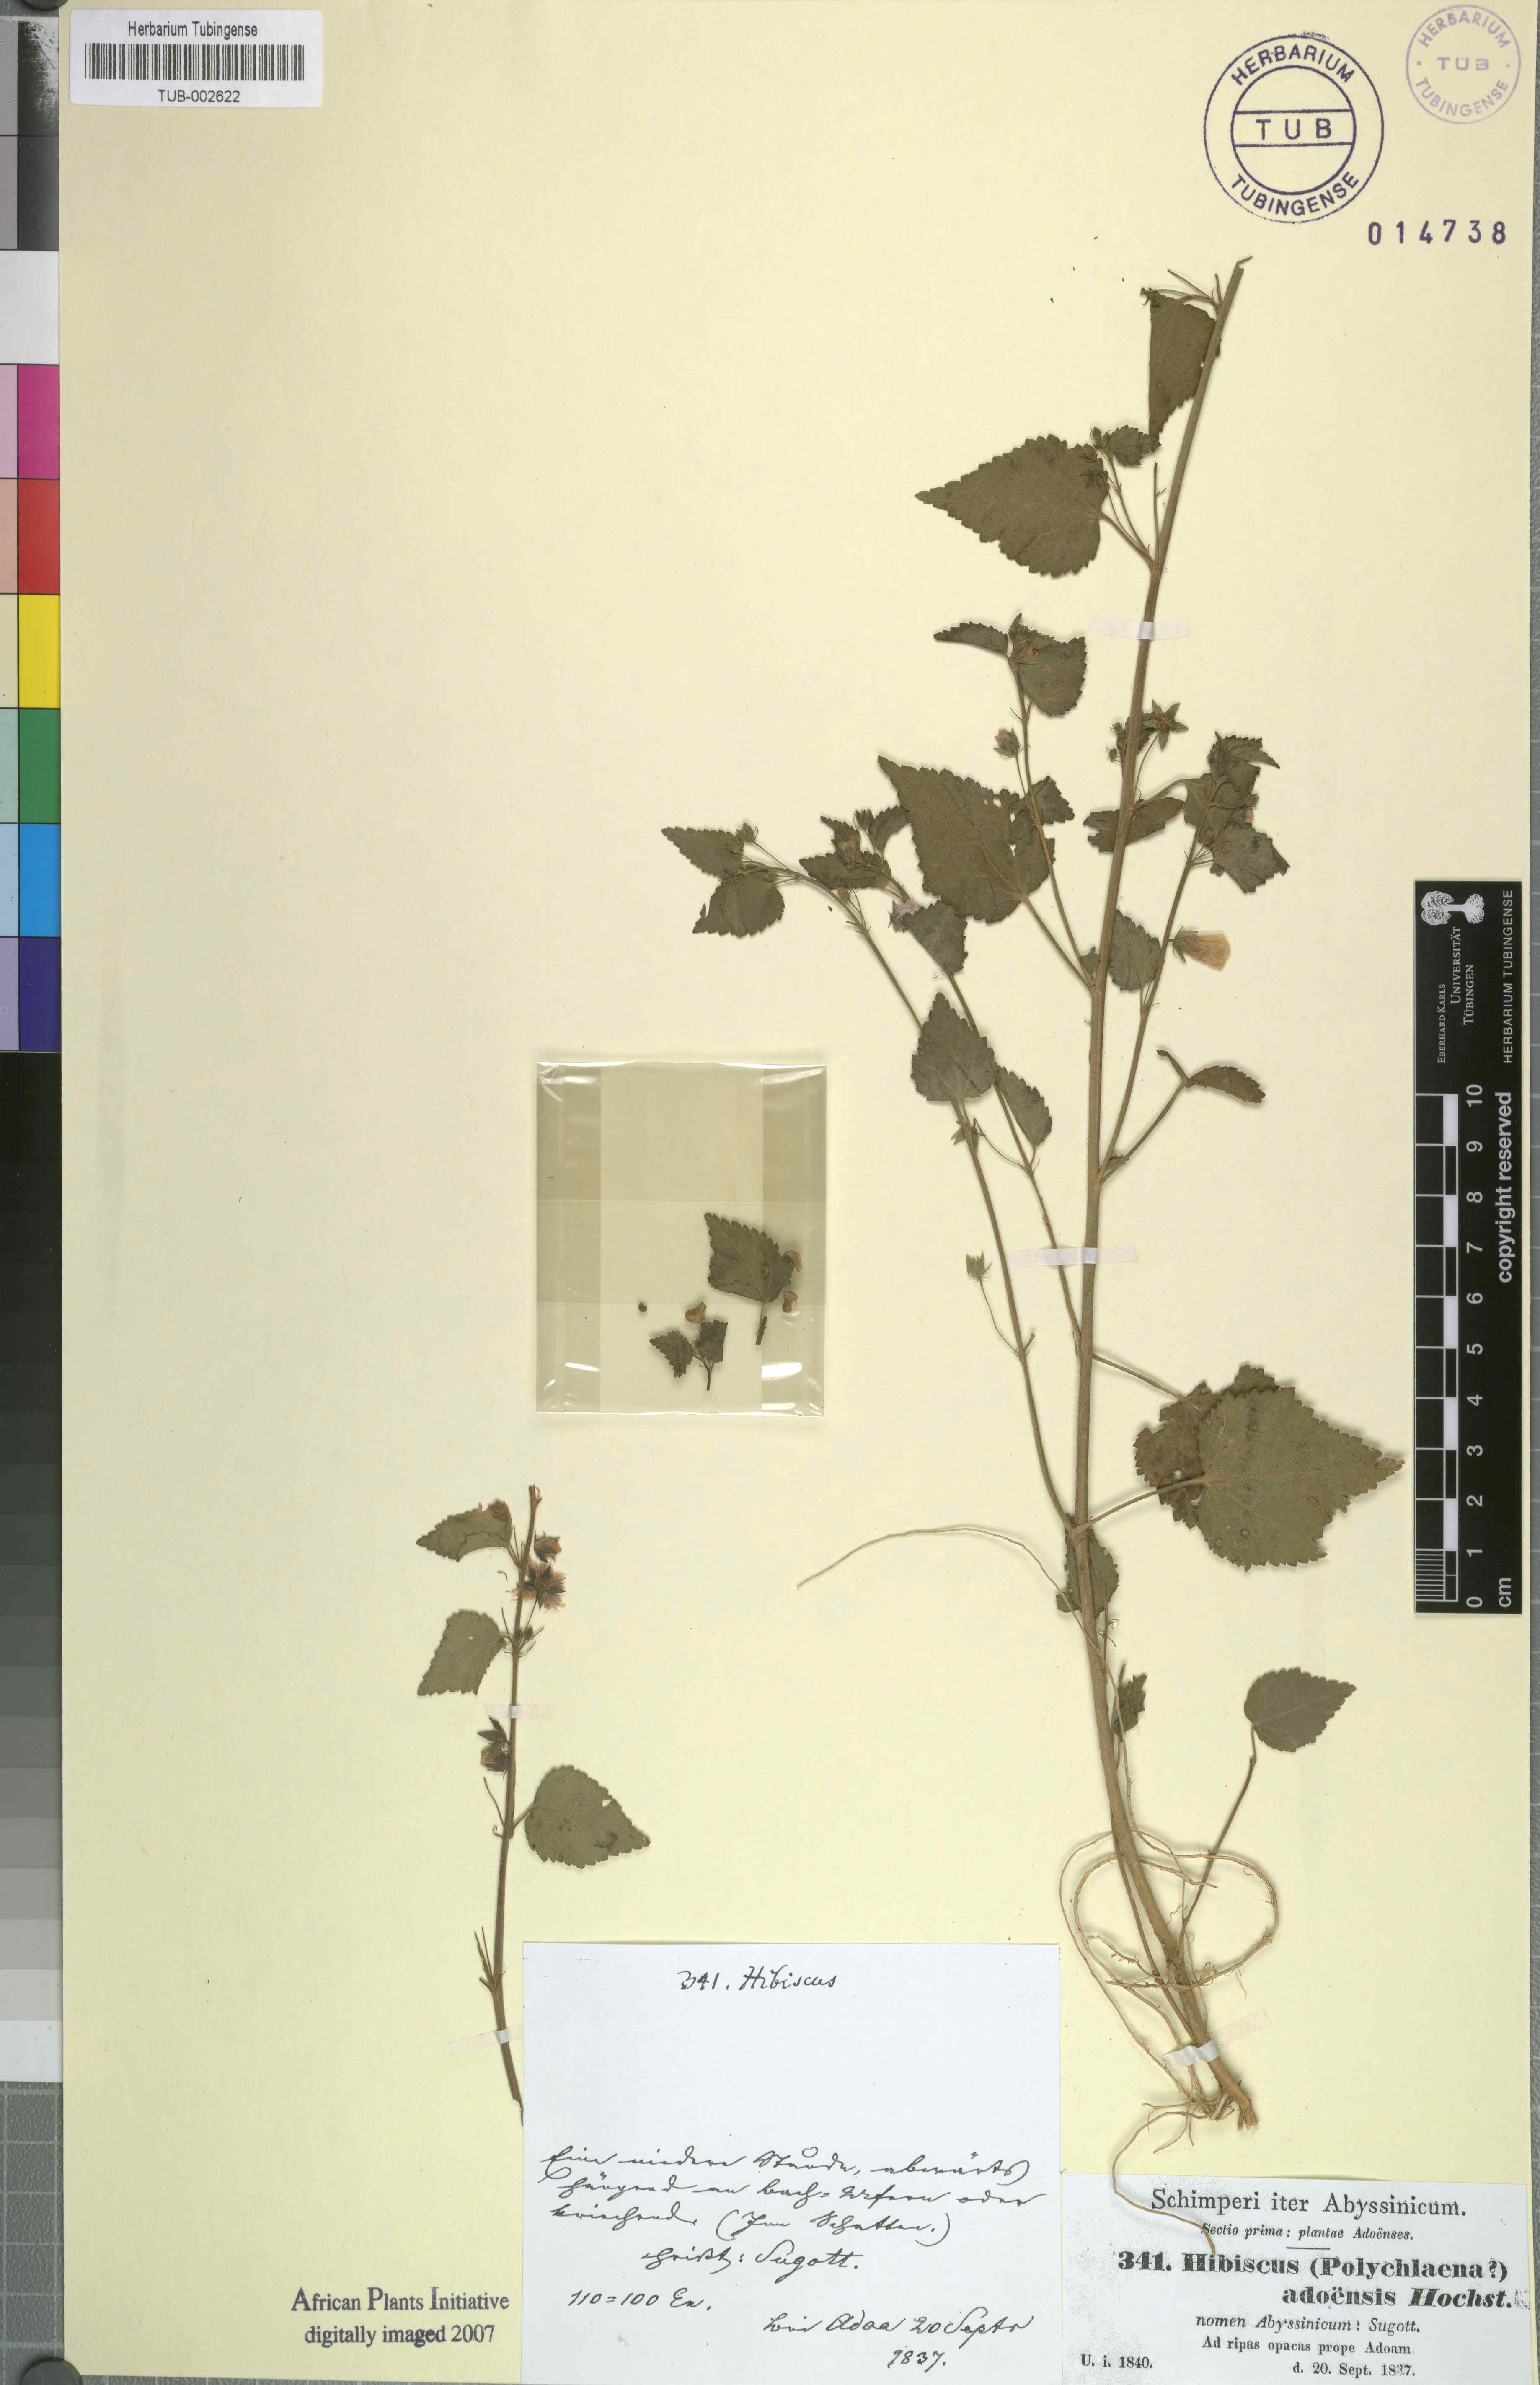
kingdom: Plantae
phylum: Tracheophyta
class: Magnoliopsida
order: Malvales
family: Malvaceae
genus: Kosteletzkya
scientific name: Kosteletzkya adoensis
